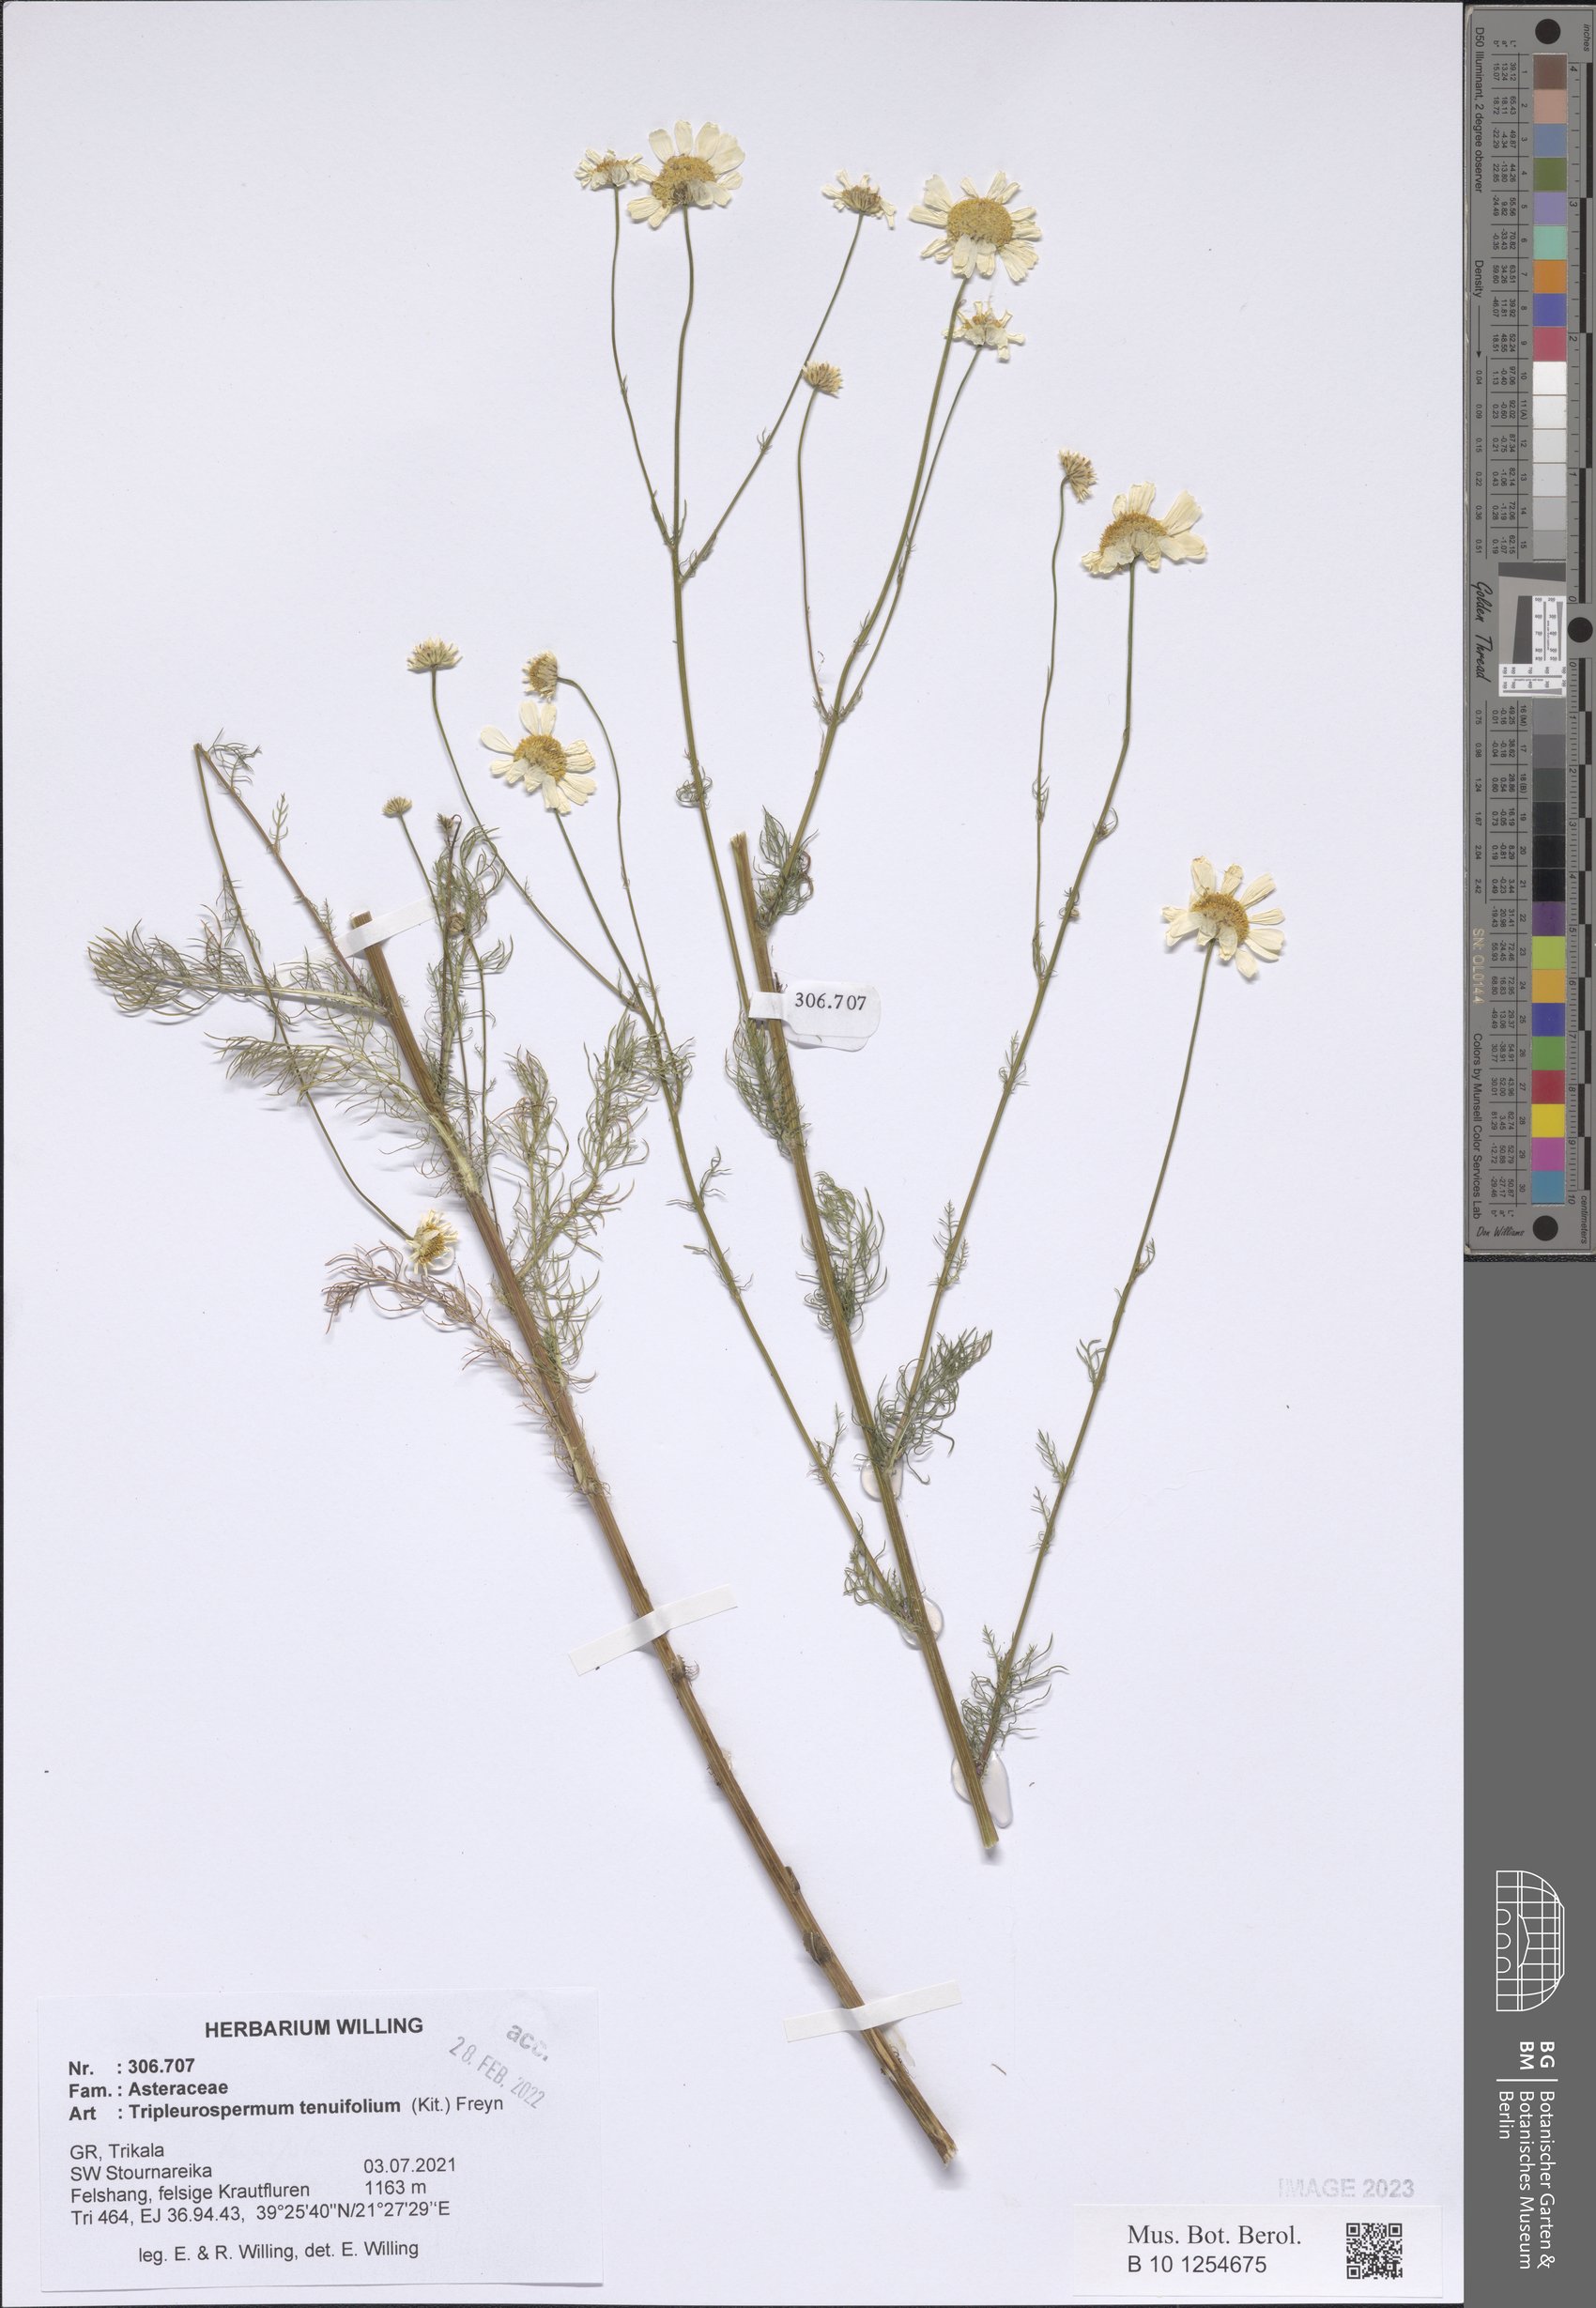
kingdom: Plantae
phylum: Tracheophyta
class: Magnoliopsida
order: Asterales
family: Asteraceae
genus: Tripleurospermum
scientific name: Tripleurospermum tenuifolium
